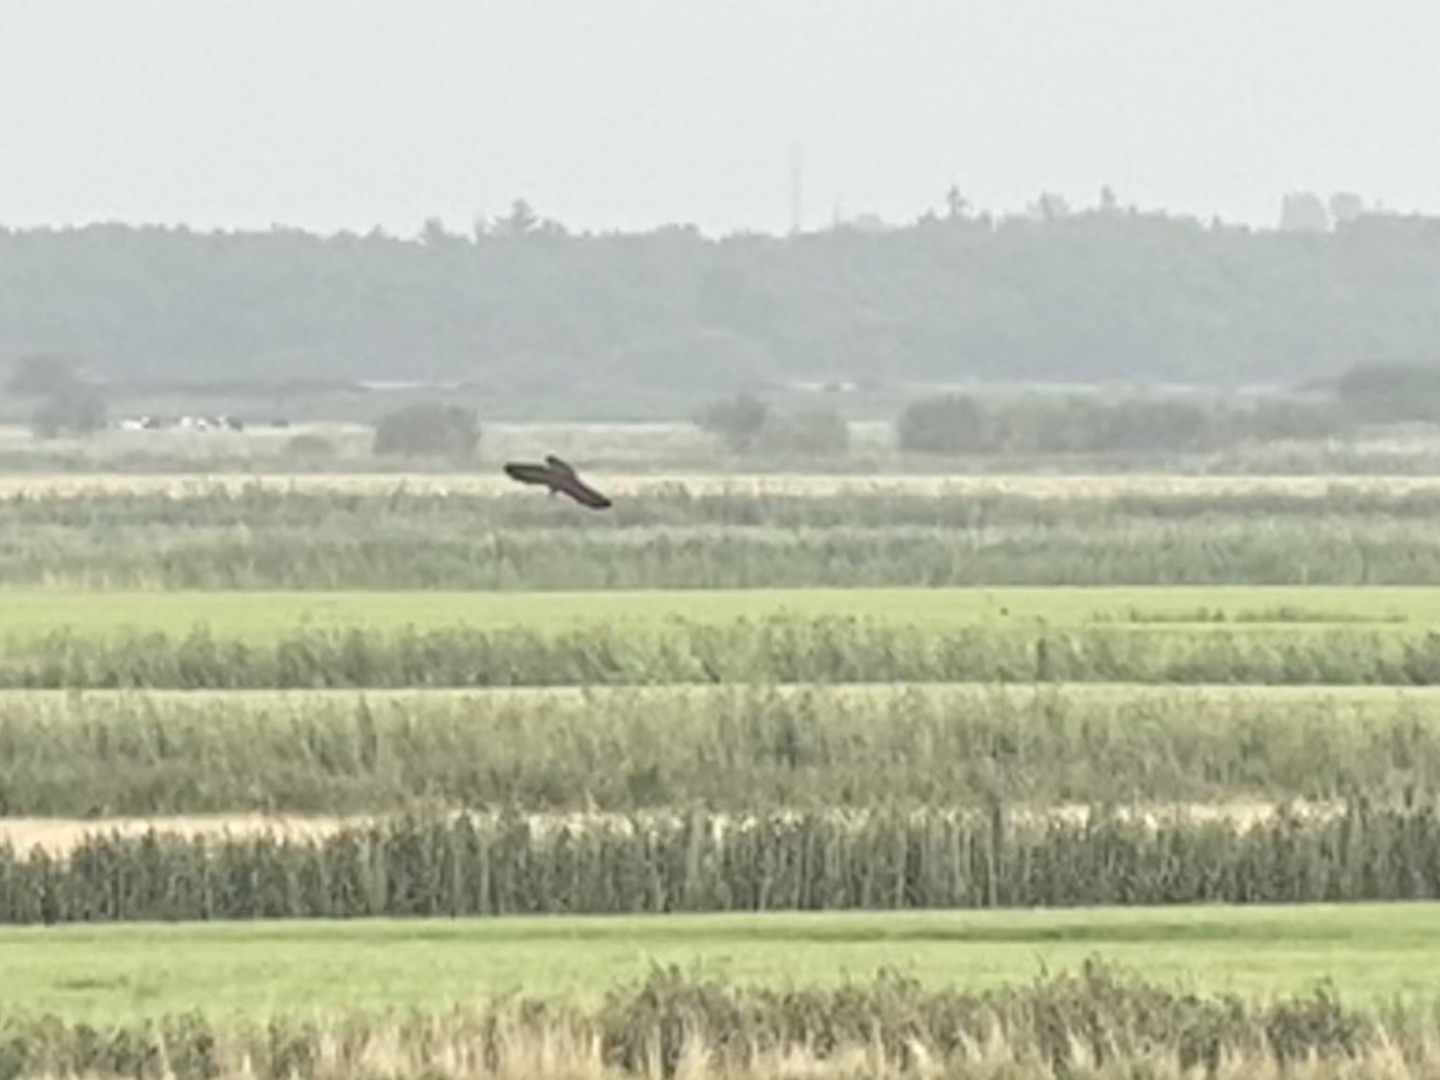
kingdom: Animalia
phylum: Chordata
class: Aves
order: Accipitriformes
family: Accipitridae
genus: Circus
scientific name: Circus aeruginosus
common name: Rørhøg
